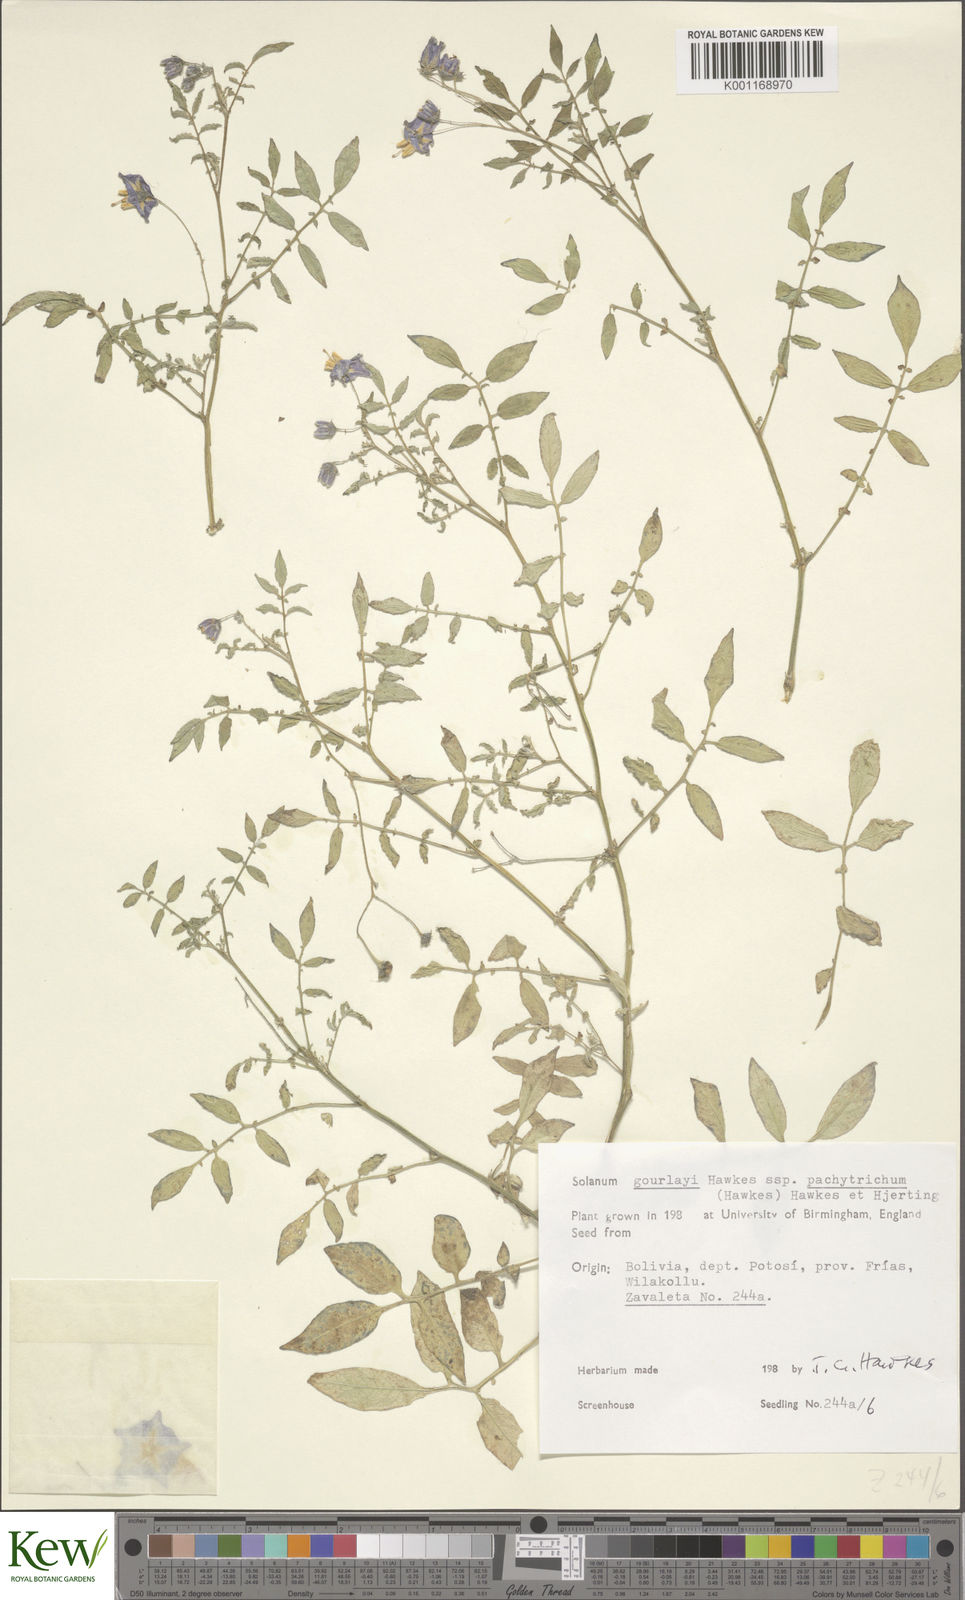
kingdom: Plantae
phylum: Tracheophyta
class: Magnoliopsida
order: Solanales
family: Solanaceae
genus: Solanum
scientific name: Solanum brevicaule
